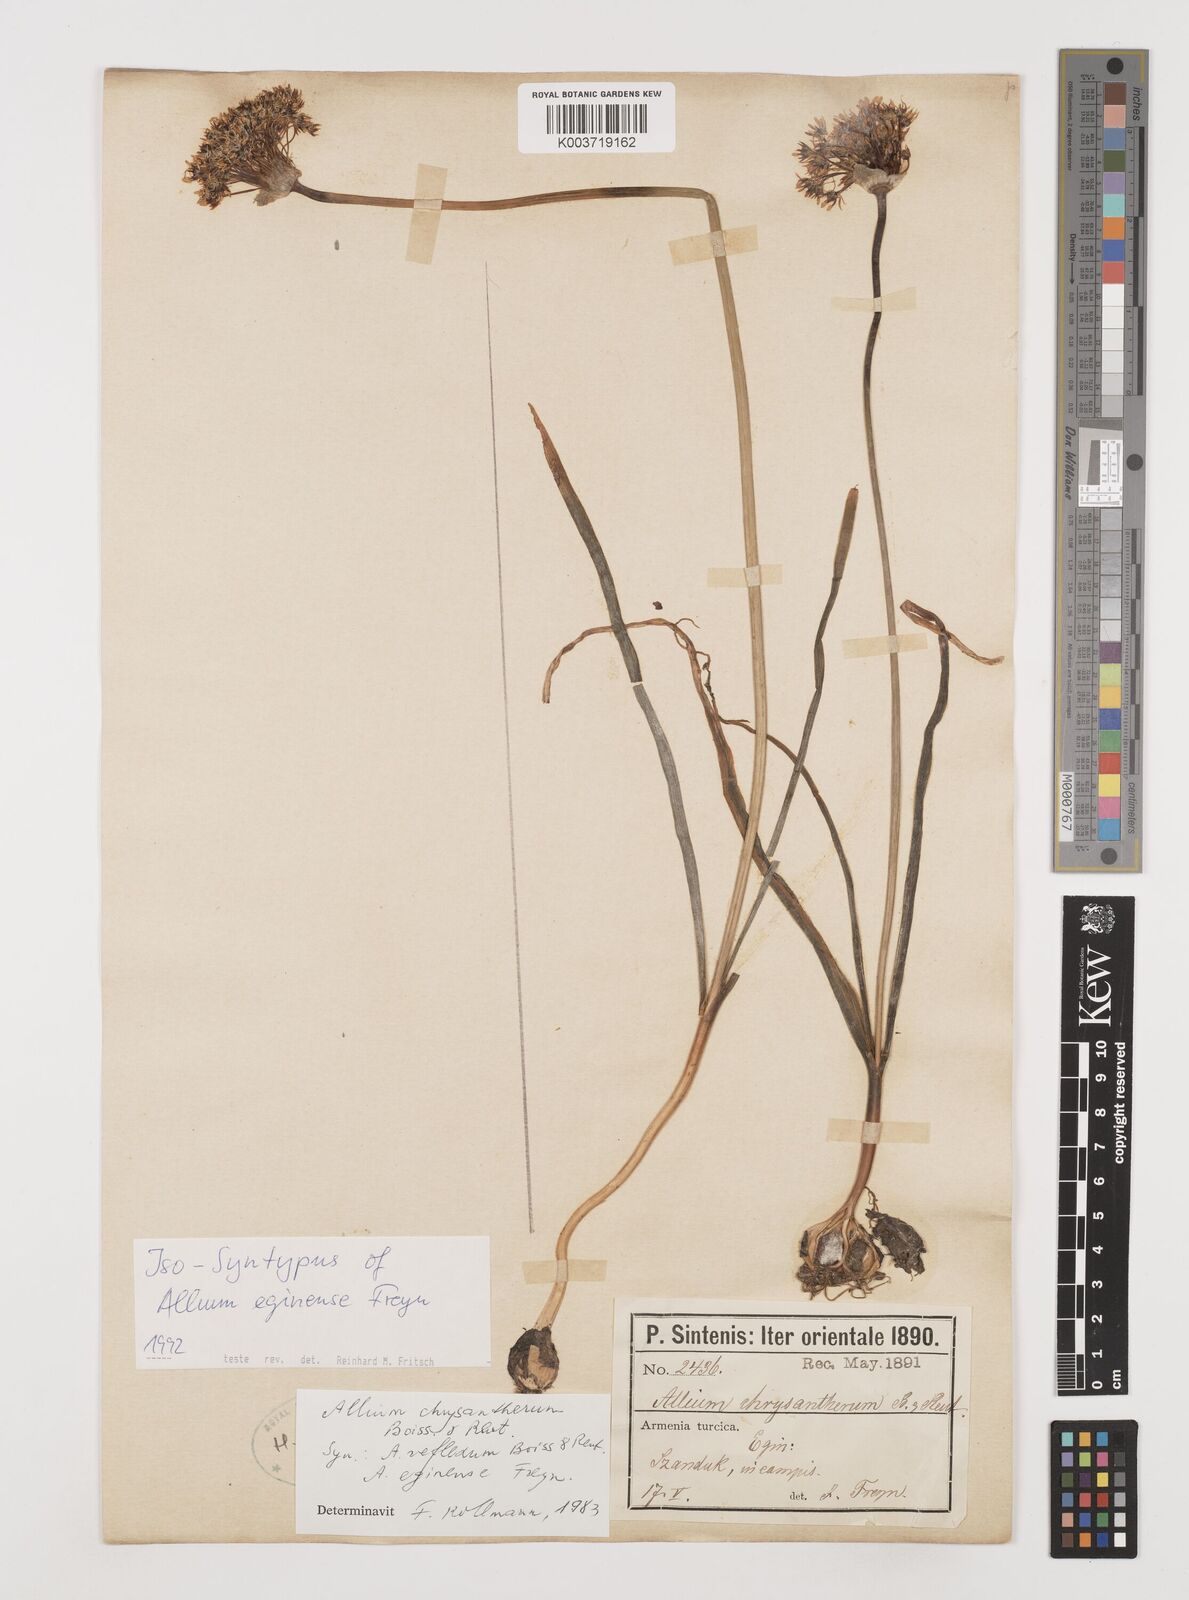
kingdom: Plantae
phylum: Tracheophyta
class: Liliopsida
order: Asparagales
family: Amaryllidaceae
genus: Allium
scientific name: Allium chrysantherum
